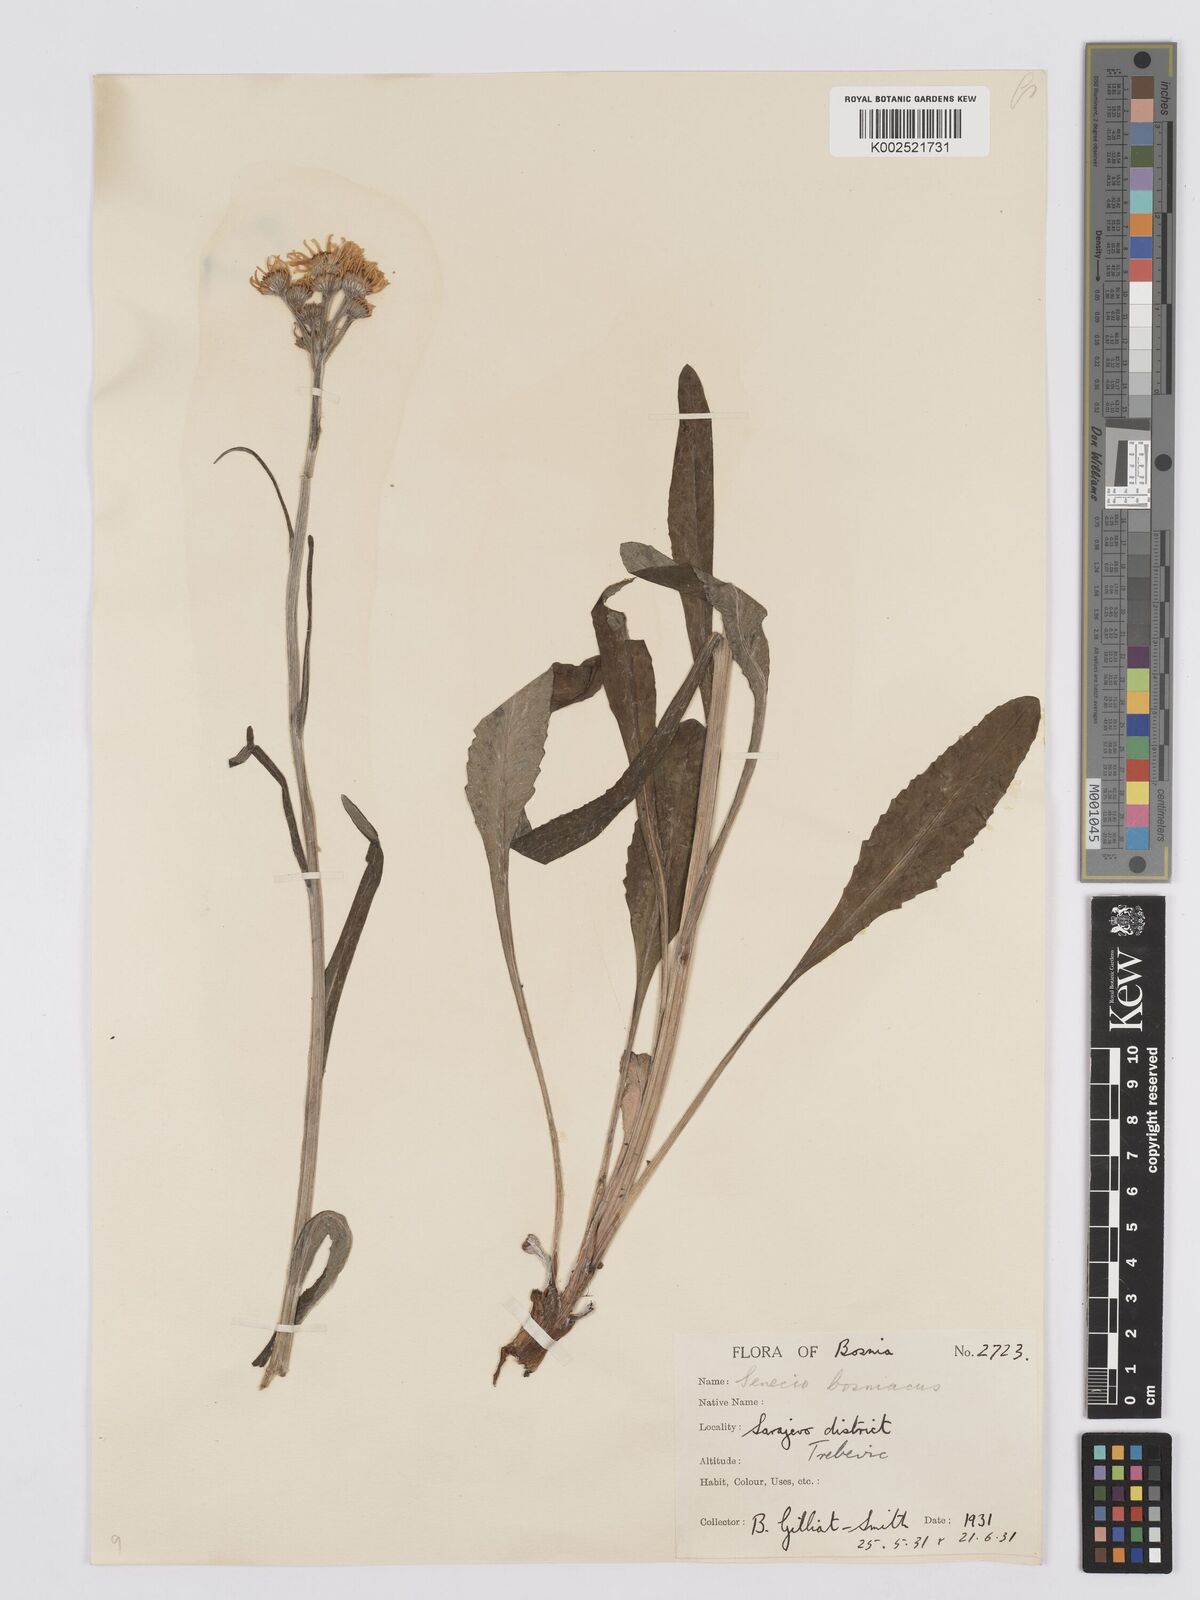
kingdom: Plantae
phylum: Tracheophyta
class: Magnoliopsida
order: Asterales
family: Asteraceae
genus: Tephroseris
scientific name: Tephroseris papposa
